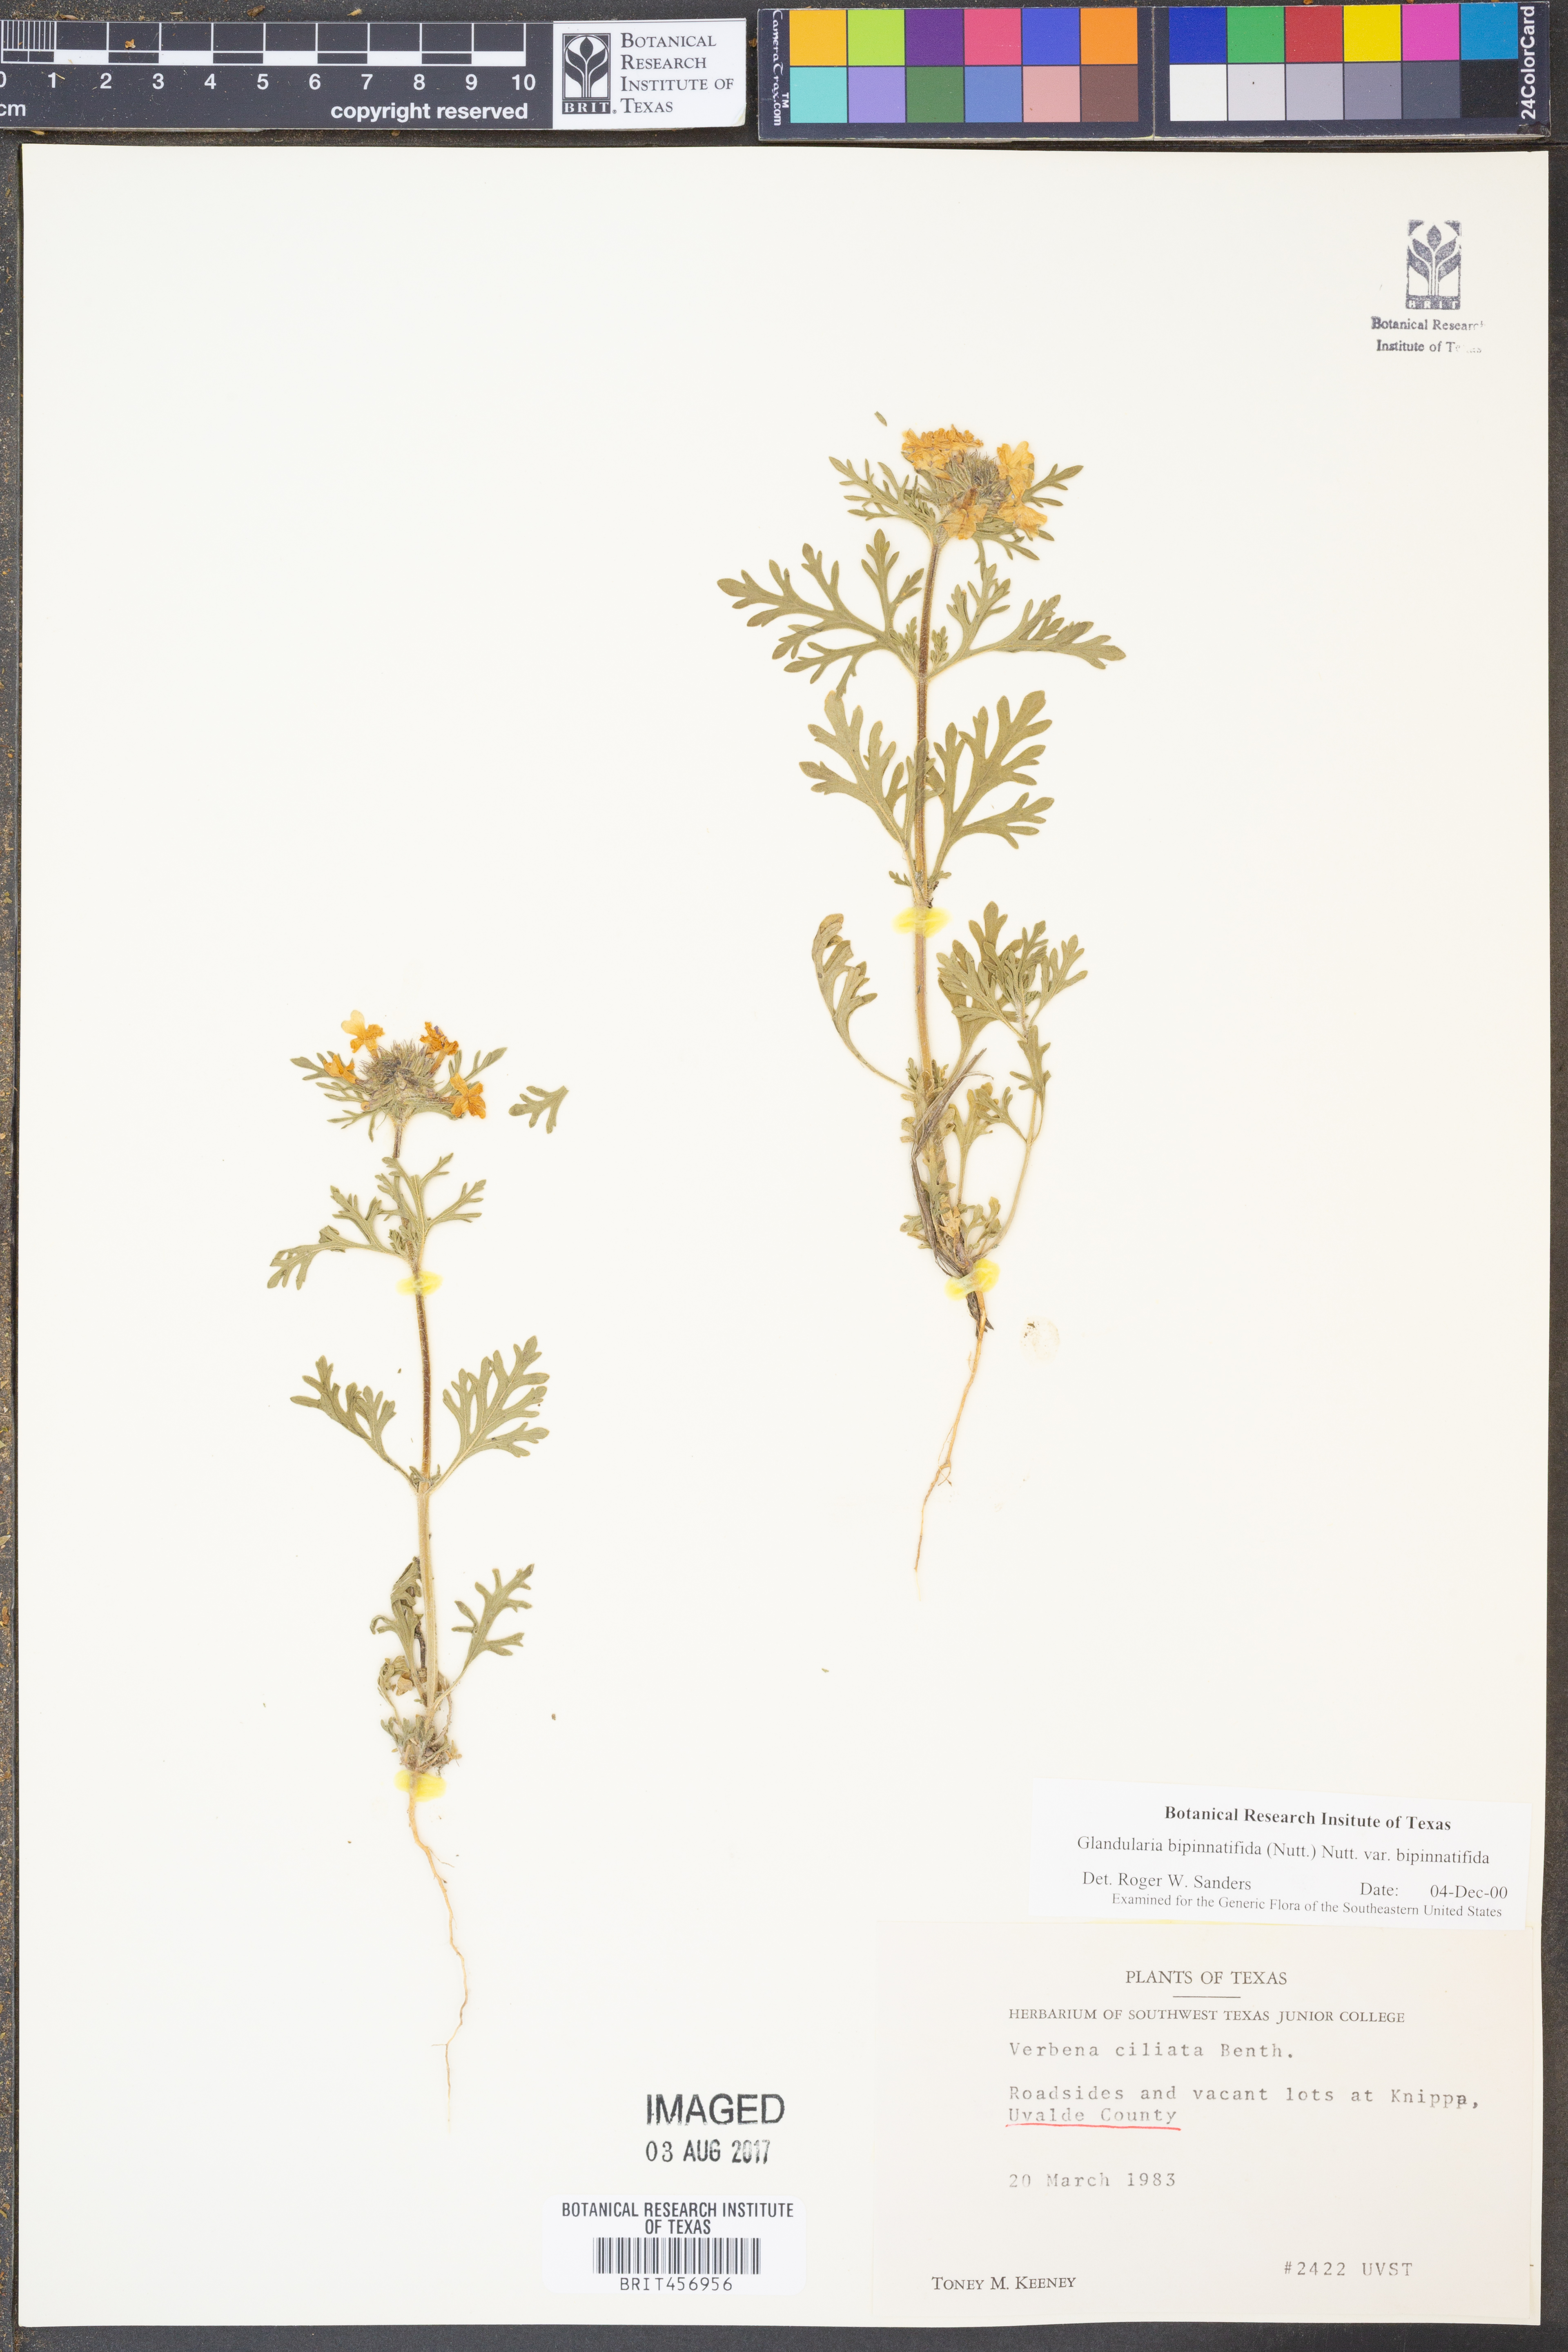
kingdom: Plantae
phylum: Tracheophyta
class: Magnoliopsida
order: Lamiales
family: Verbenaceae
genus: Verbena
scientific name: Verbena bipinnatifida
